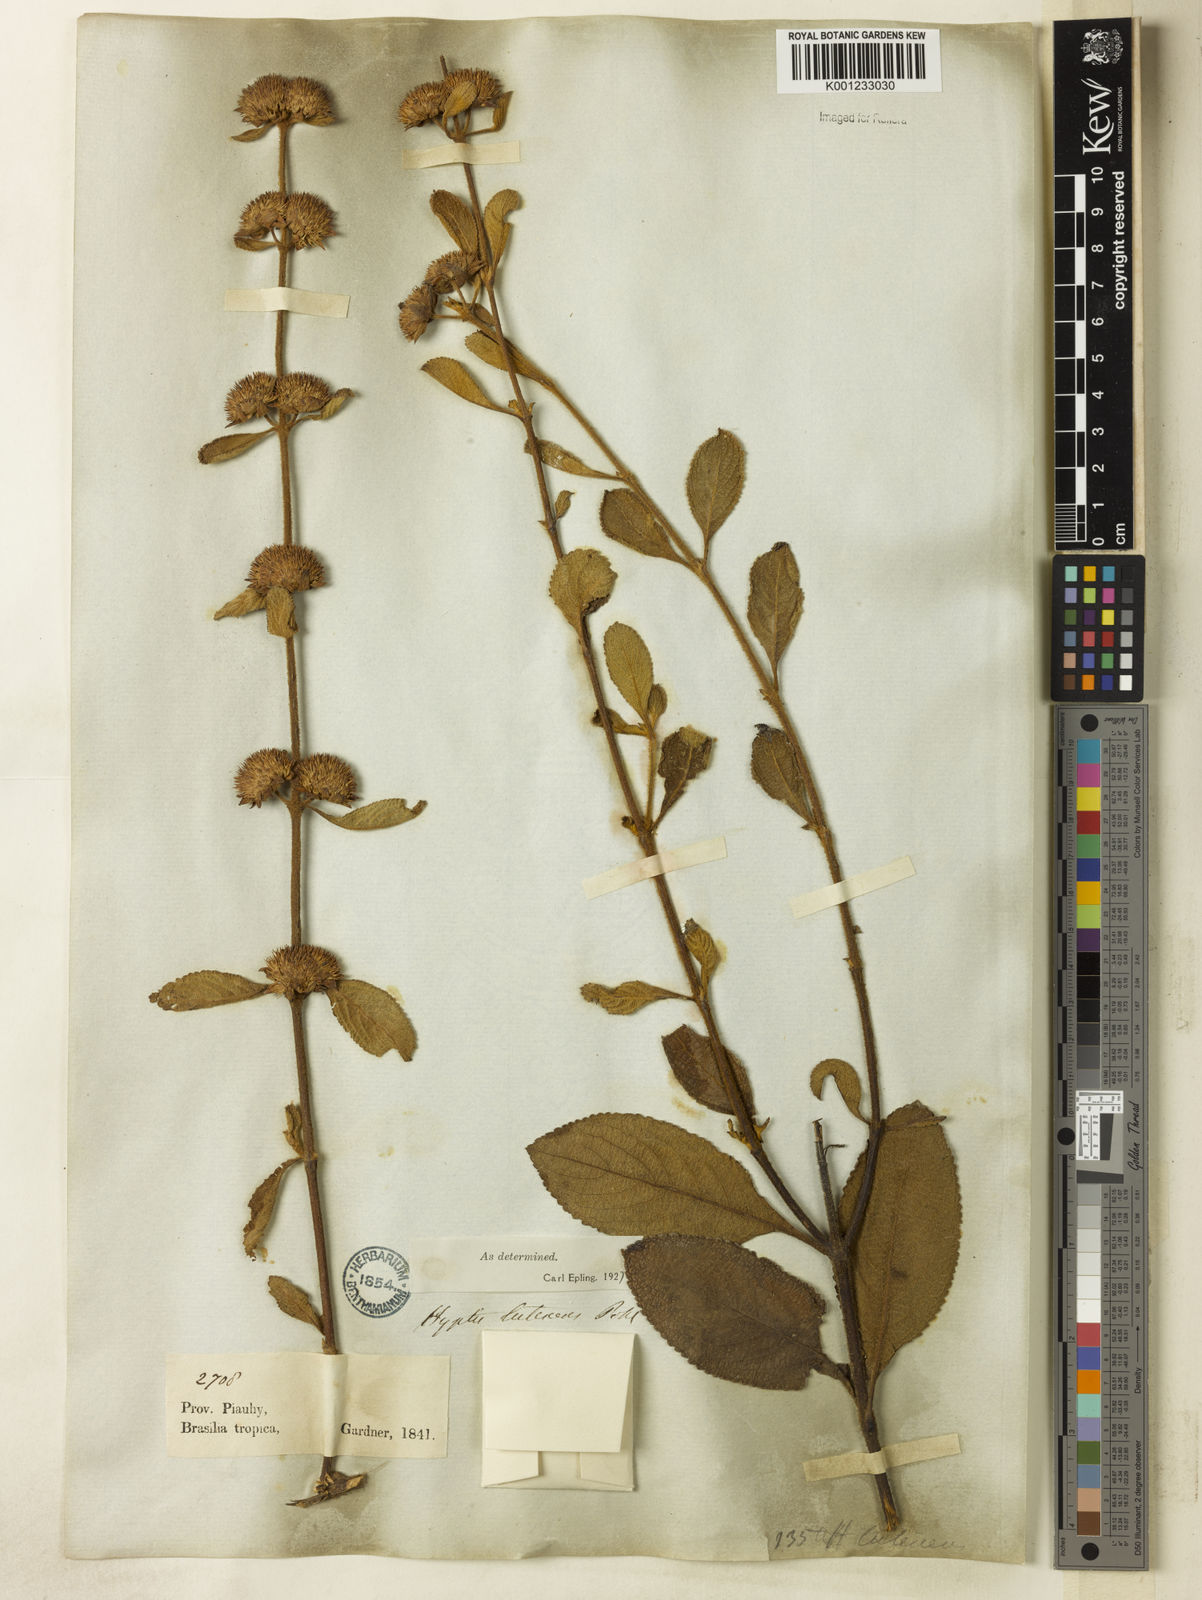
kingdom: Plantae
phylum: Tracheophyta
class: Magnoliopsida
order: Lamiales
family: Lamiaceae
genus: Hyptis
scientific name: Hyptis lutescens
